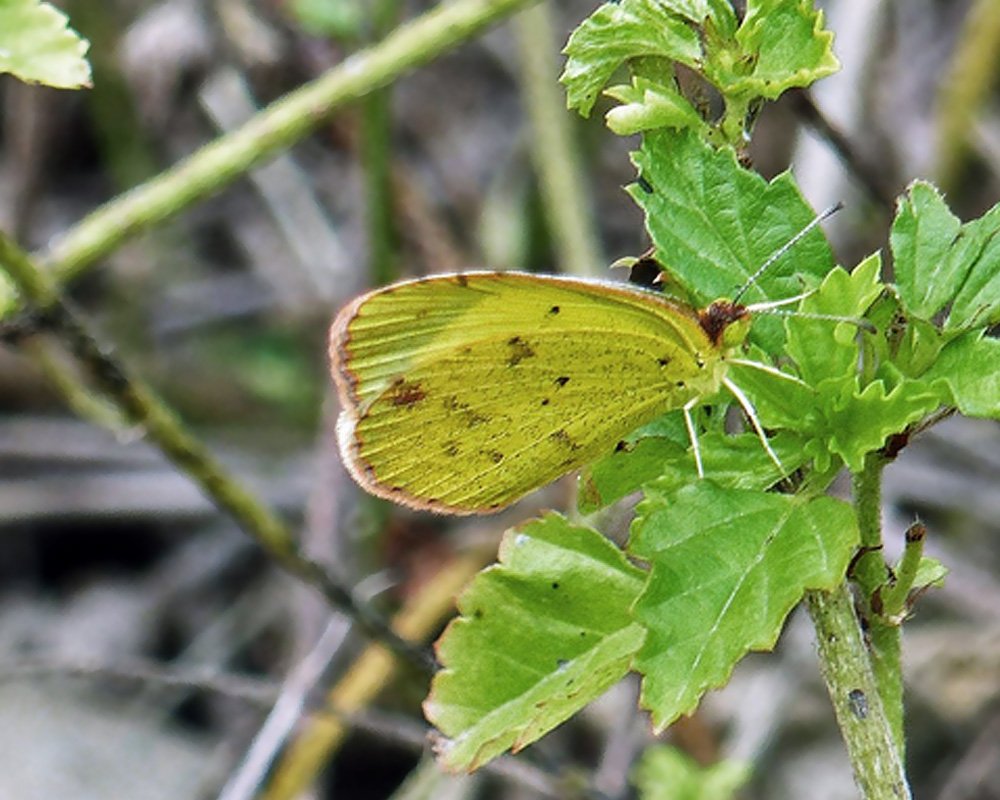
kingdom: Animalia
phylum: Arthropoda
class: Insecta
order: Lepidoptera
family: Pieridae
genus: Pyrisitia
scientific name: Pyrisitia lisa
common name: Little Yellow
